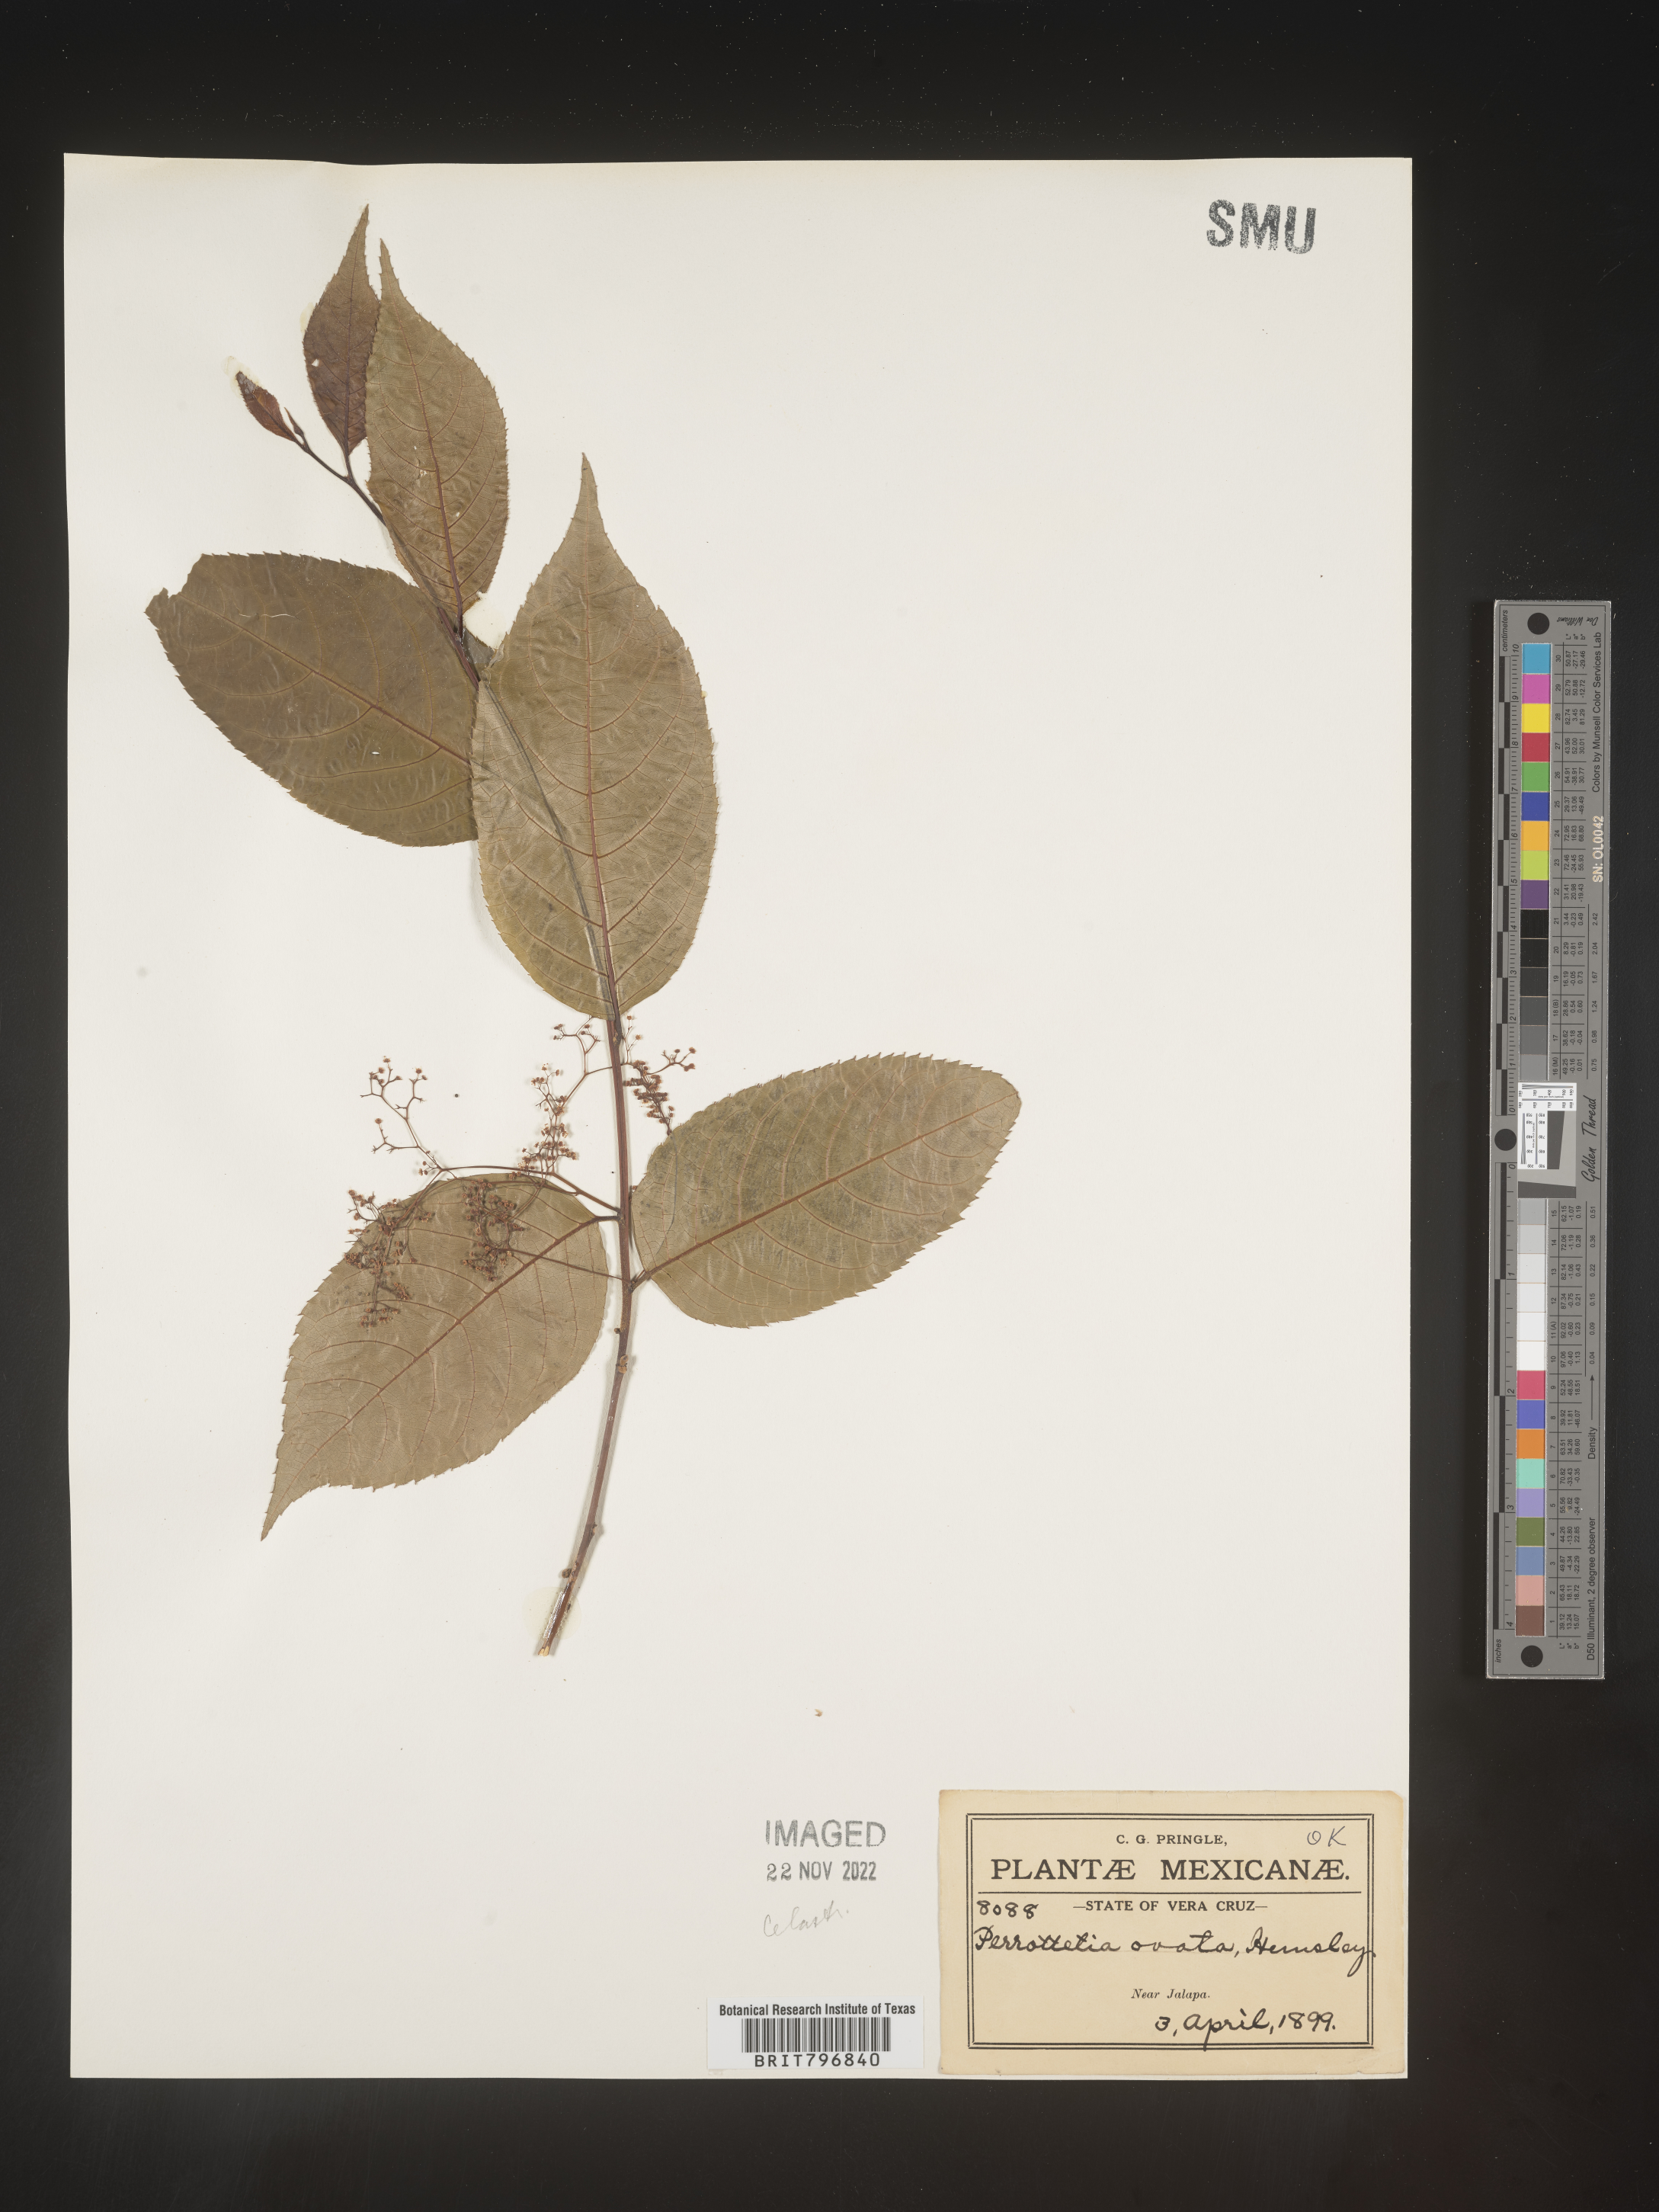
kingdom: Plantae
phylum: Tracheophyta
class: Magnoliopsida
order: Huerteales
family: Dipentodontaceae
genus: Perrottetia
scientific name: Perrottetia
